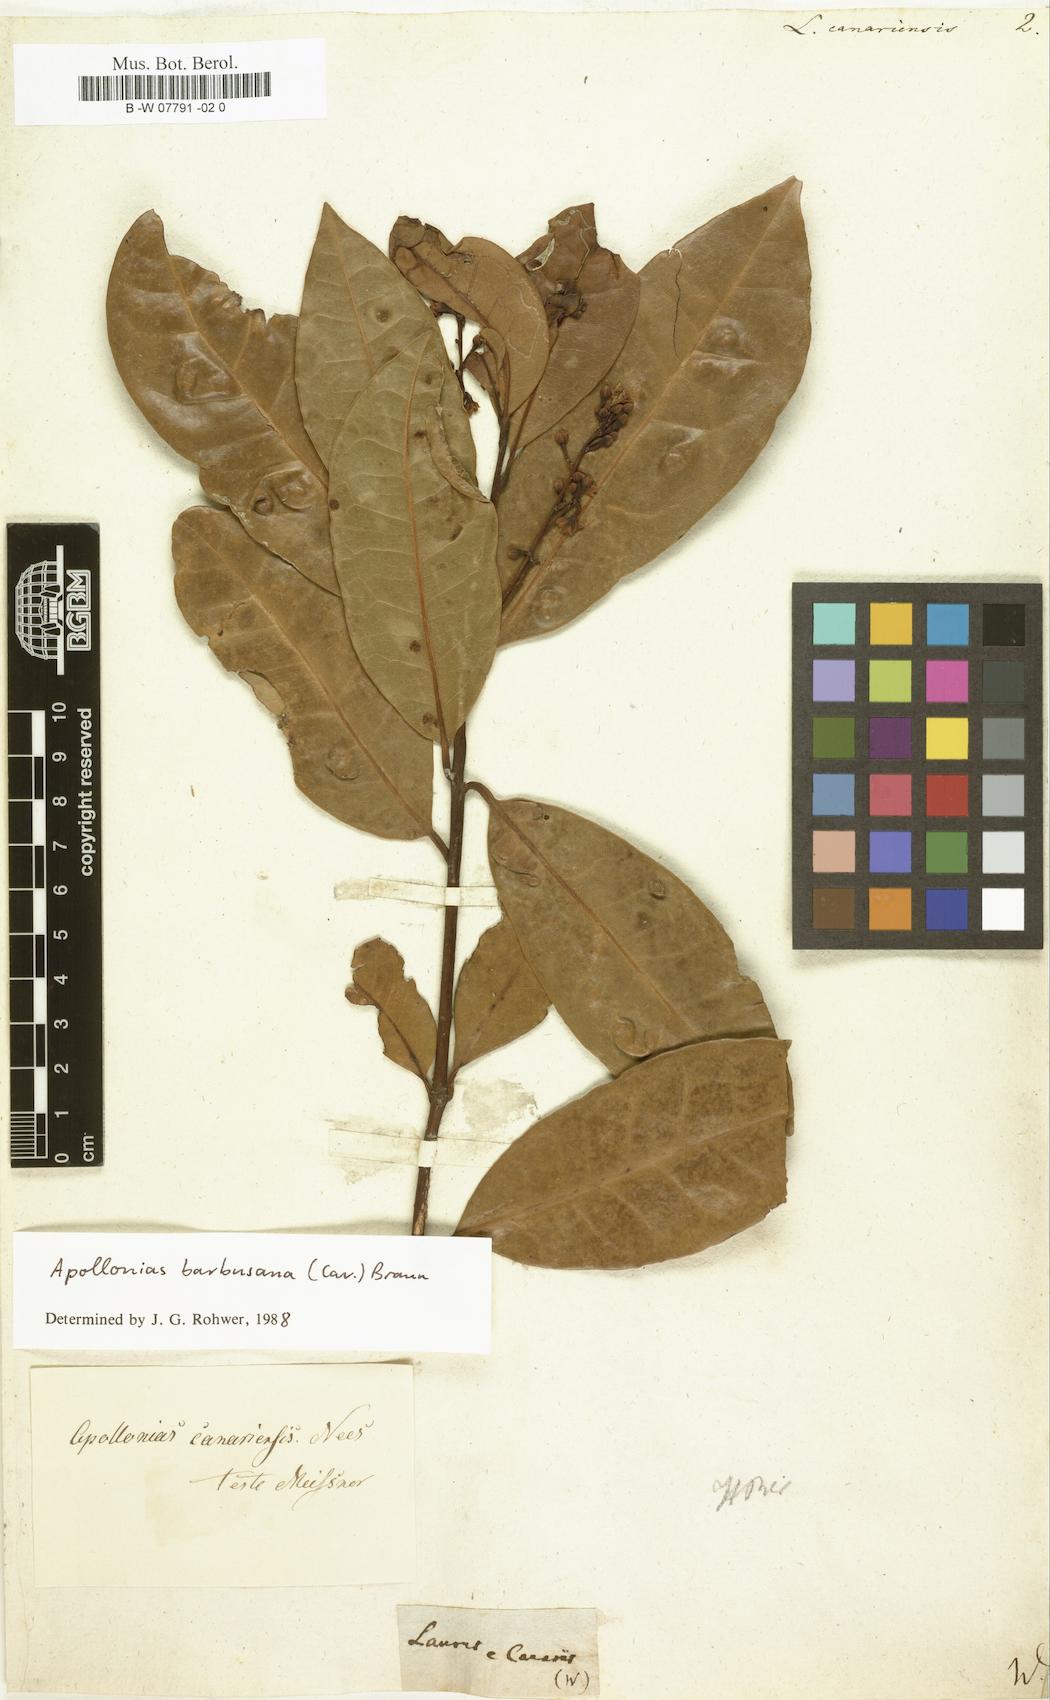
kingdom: Plantae
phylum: Tracheophyta
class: Magnoliopsida
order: Laurales
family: Lauraceae
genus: Apollonias
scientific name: Apollonias barbujana
